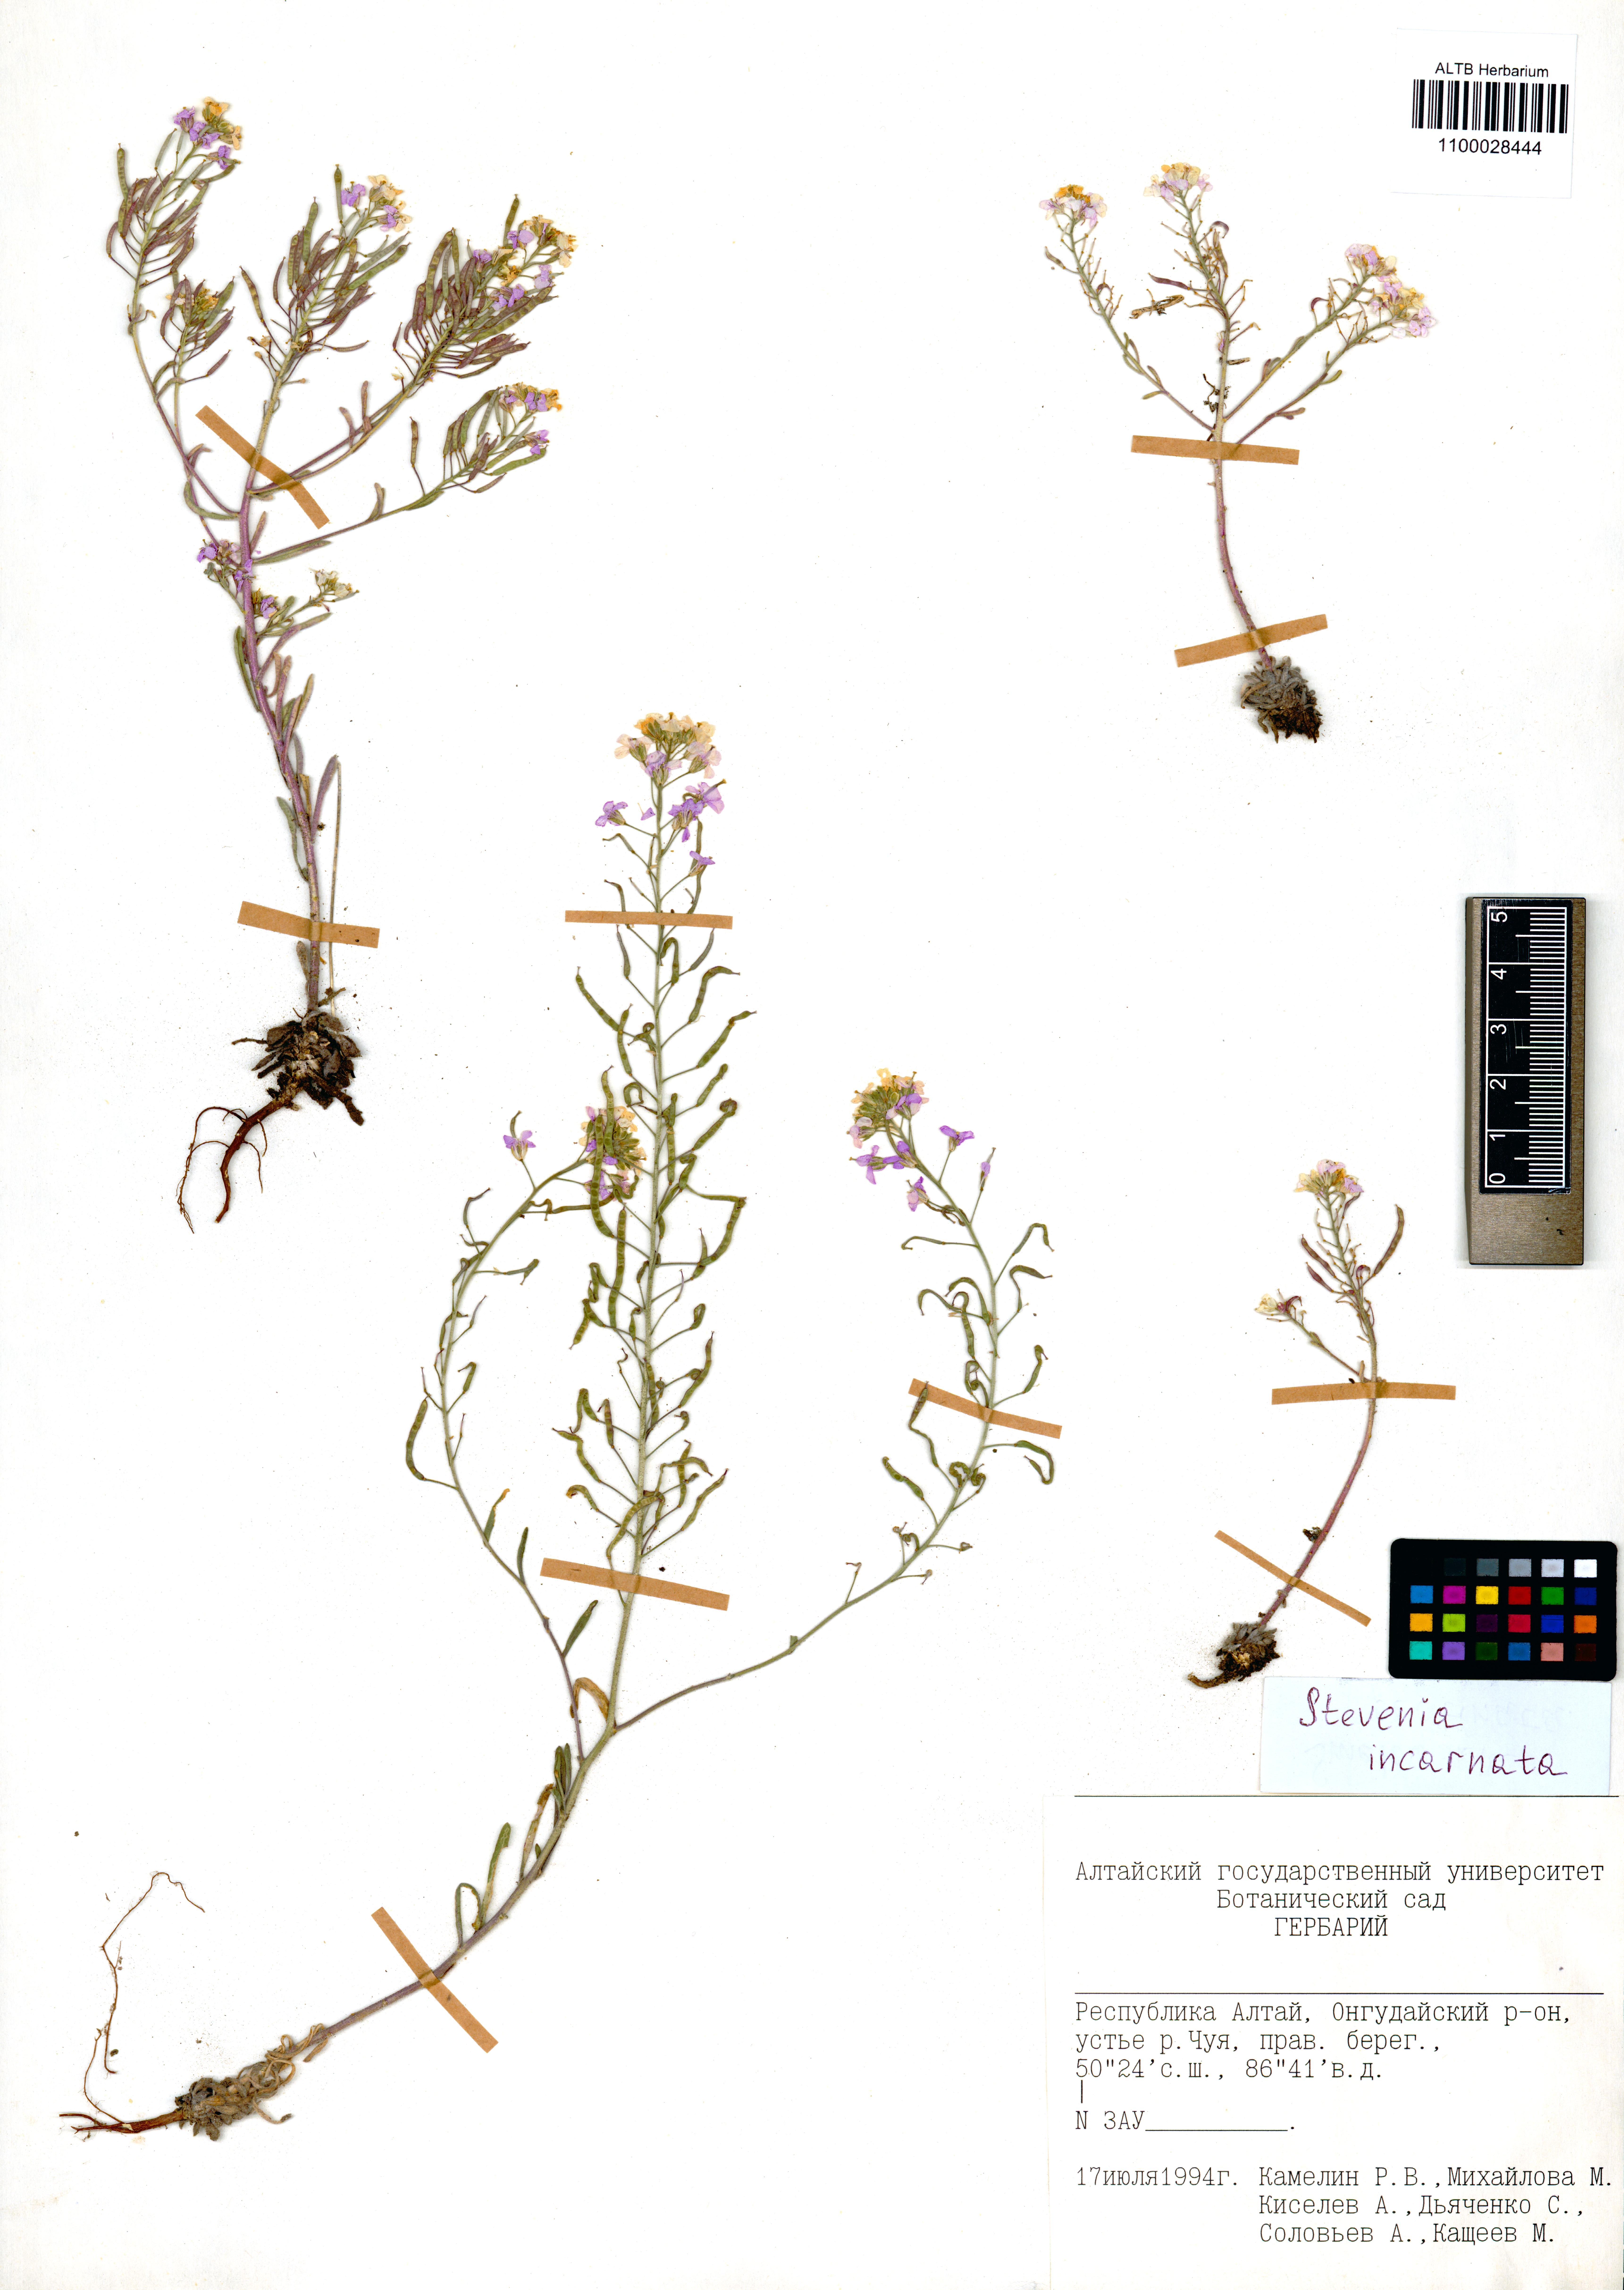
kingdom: Plantae
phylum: Tracheophyta
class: Magnoliopsida
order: Brassicales
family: Brassicaceae
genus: Stevenia
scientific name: Stevenia incarnata
